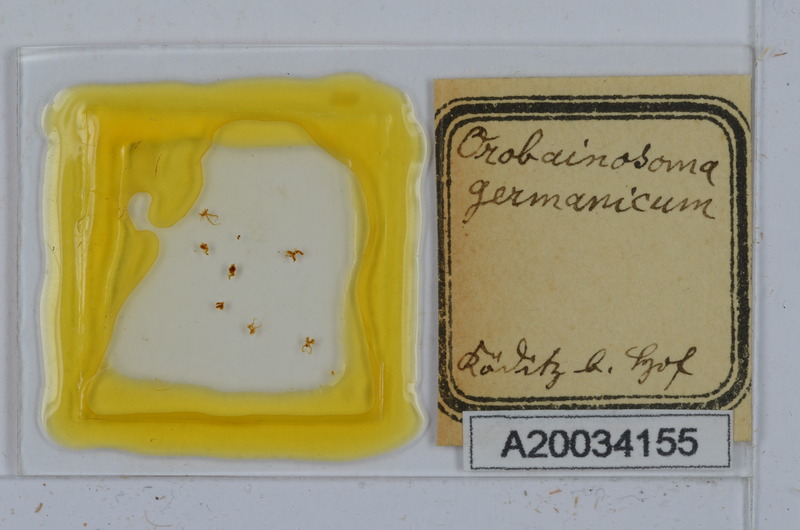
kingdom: Animalia
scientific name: Animalia
